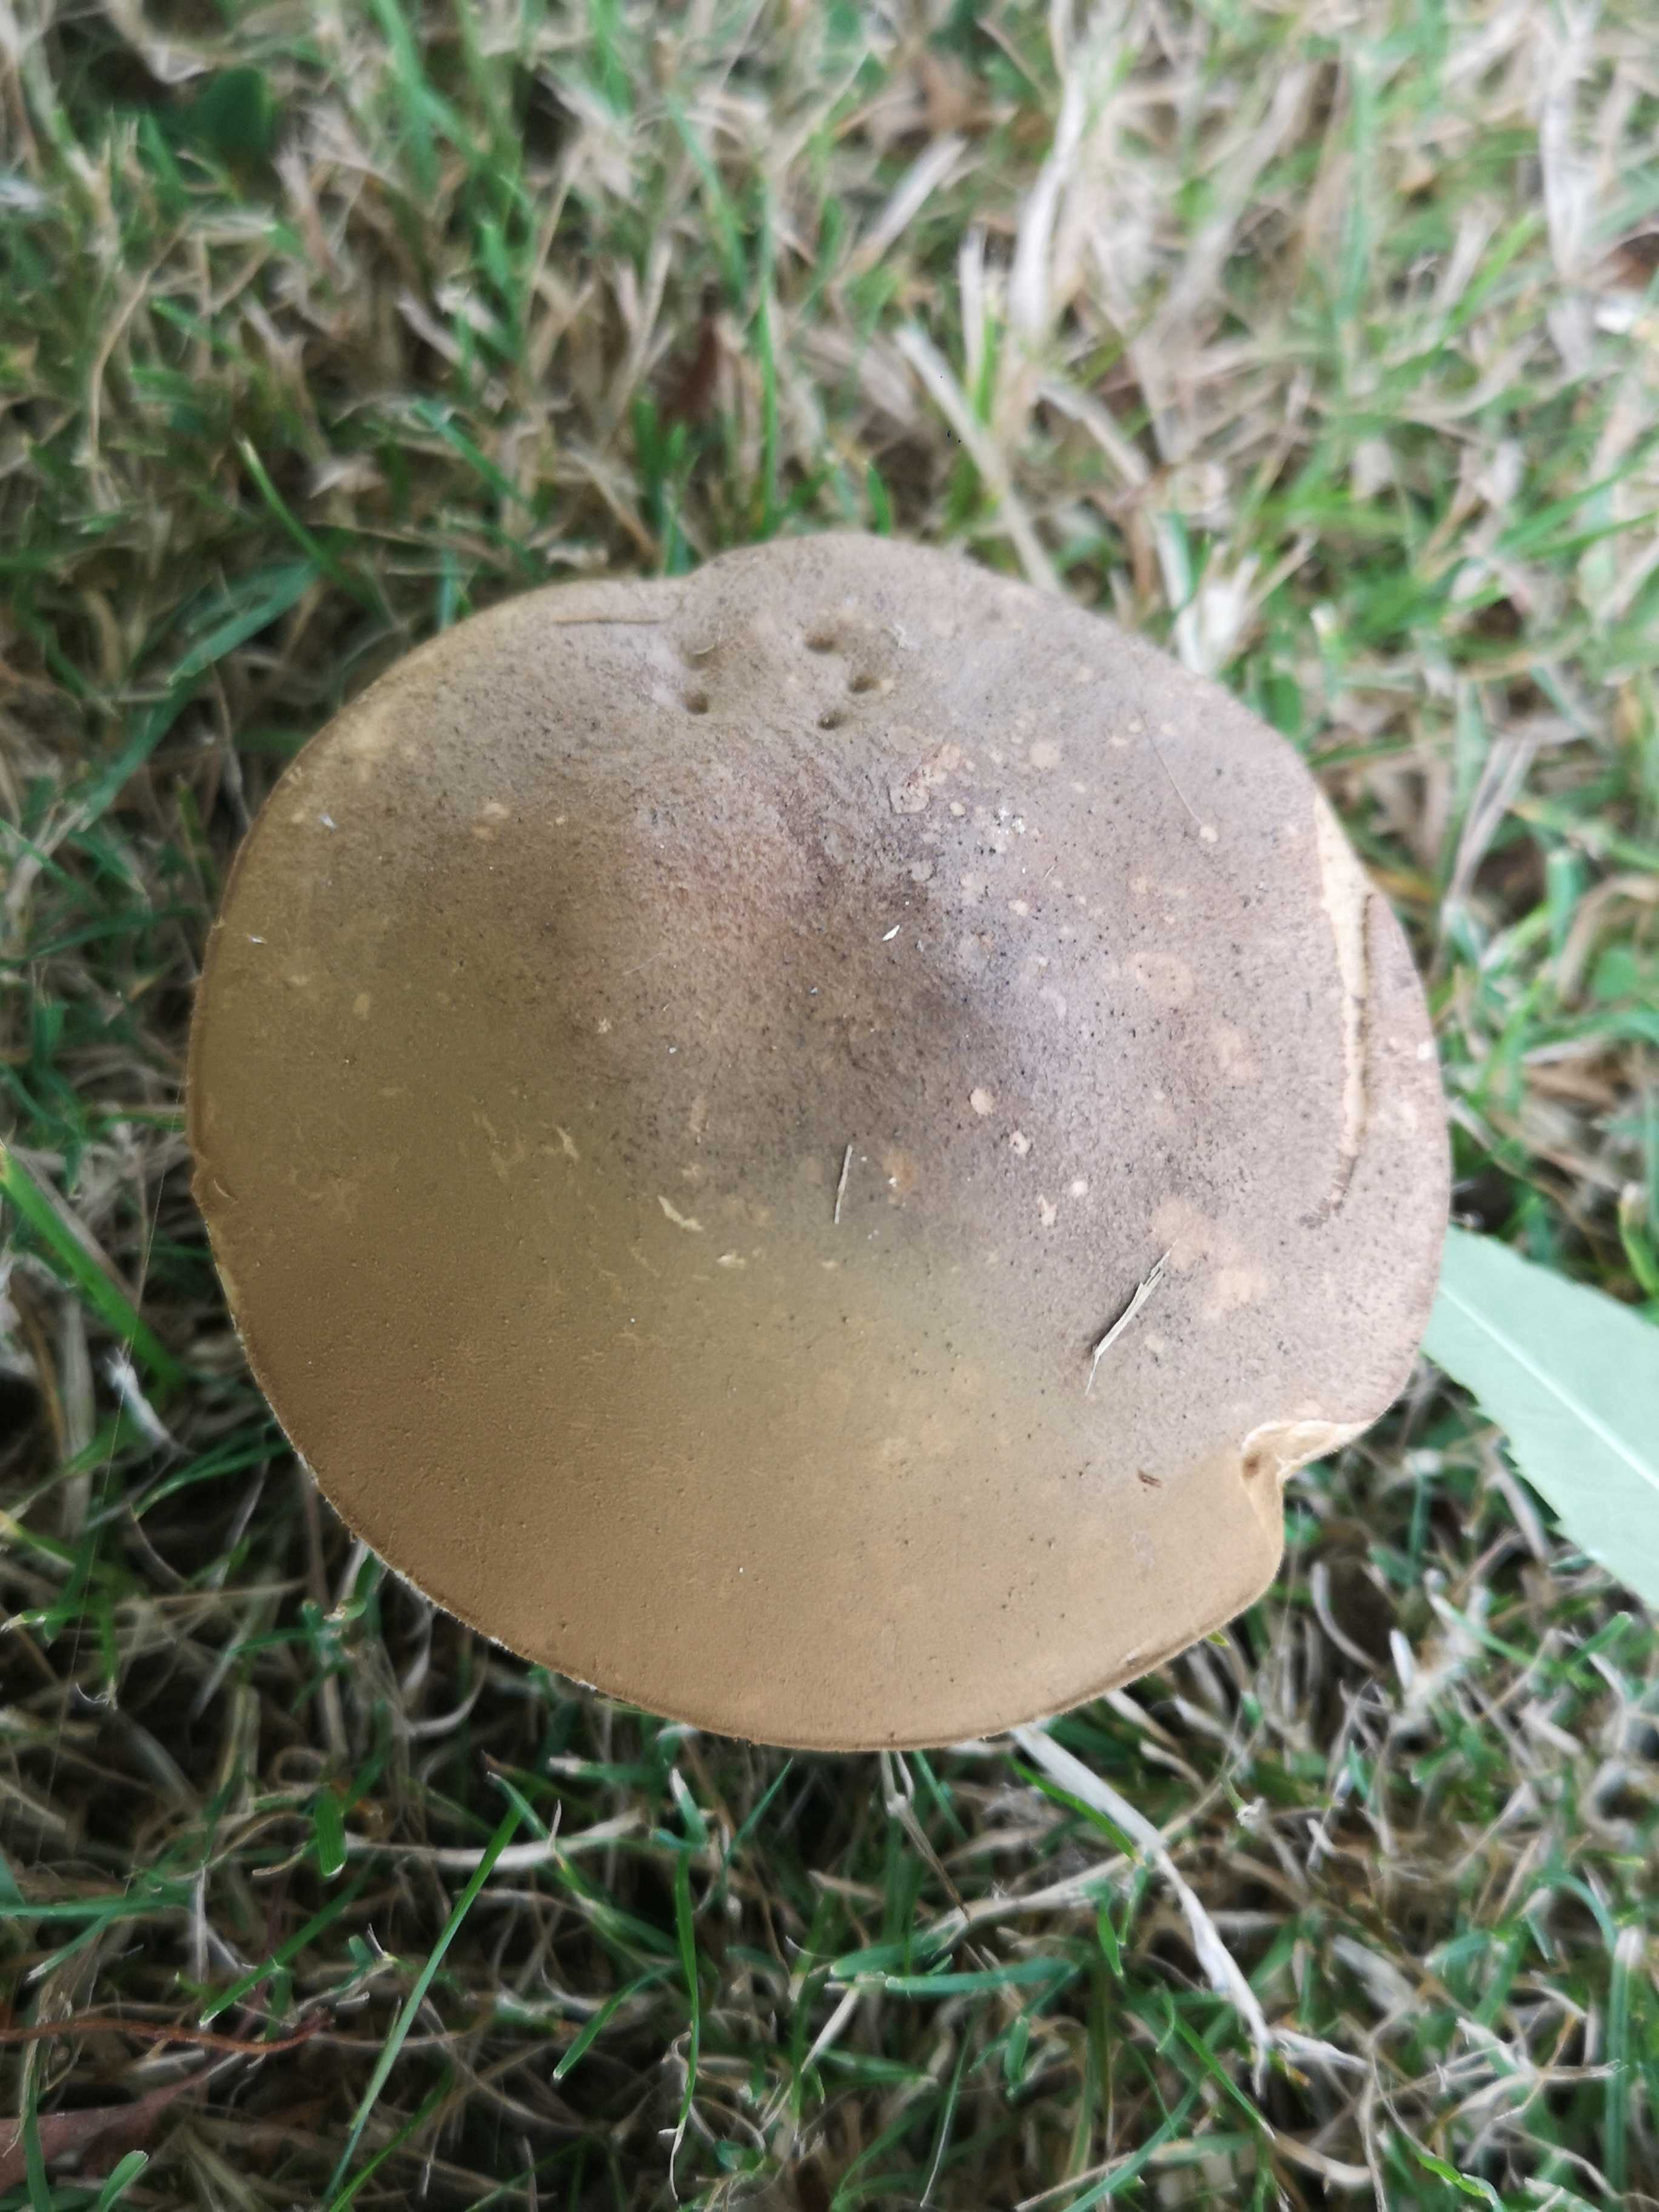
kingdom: Fungi
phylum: Basidiomycota
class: Agaricomycetes
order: Boletales
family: Boletaceae
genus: Leccinum
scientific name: Leccinum scabrum
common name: brun skælrørhat
